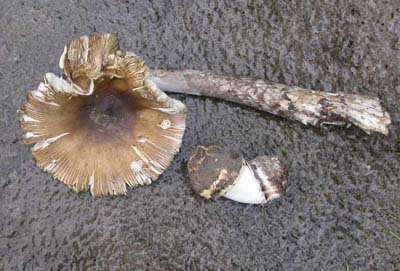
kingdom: Fungi
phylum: Basidiomycota
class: Agaricomycetes
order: Agaricales
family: Amanitaceae
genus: Amanita
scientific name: Amanita ceciliae
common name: stor kam-fluesvamp
